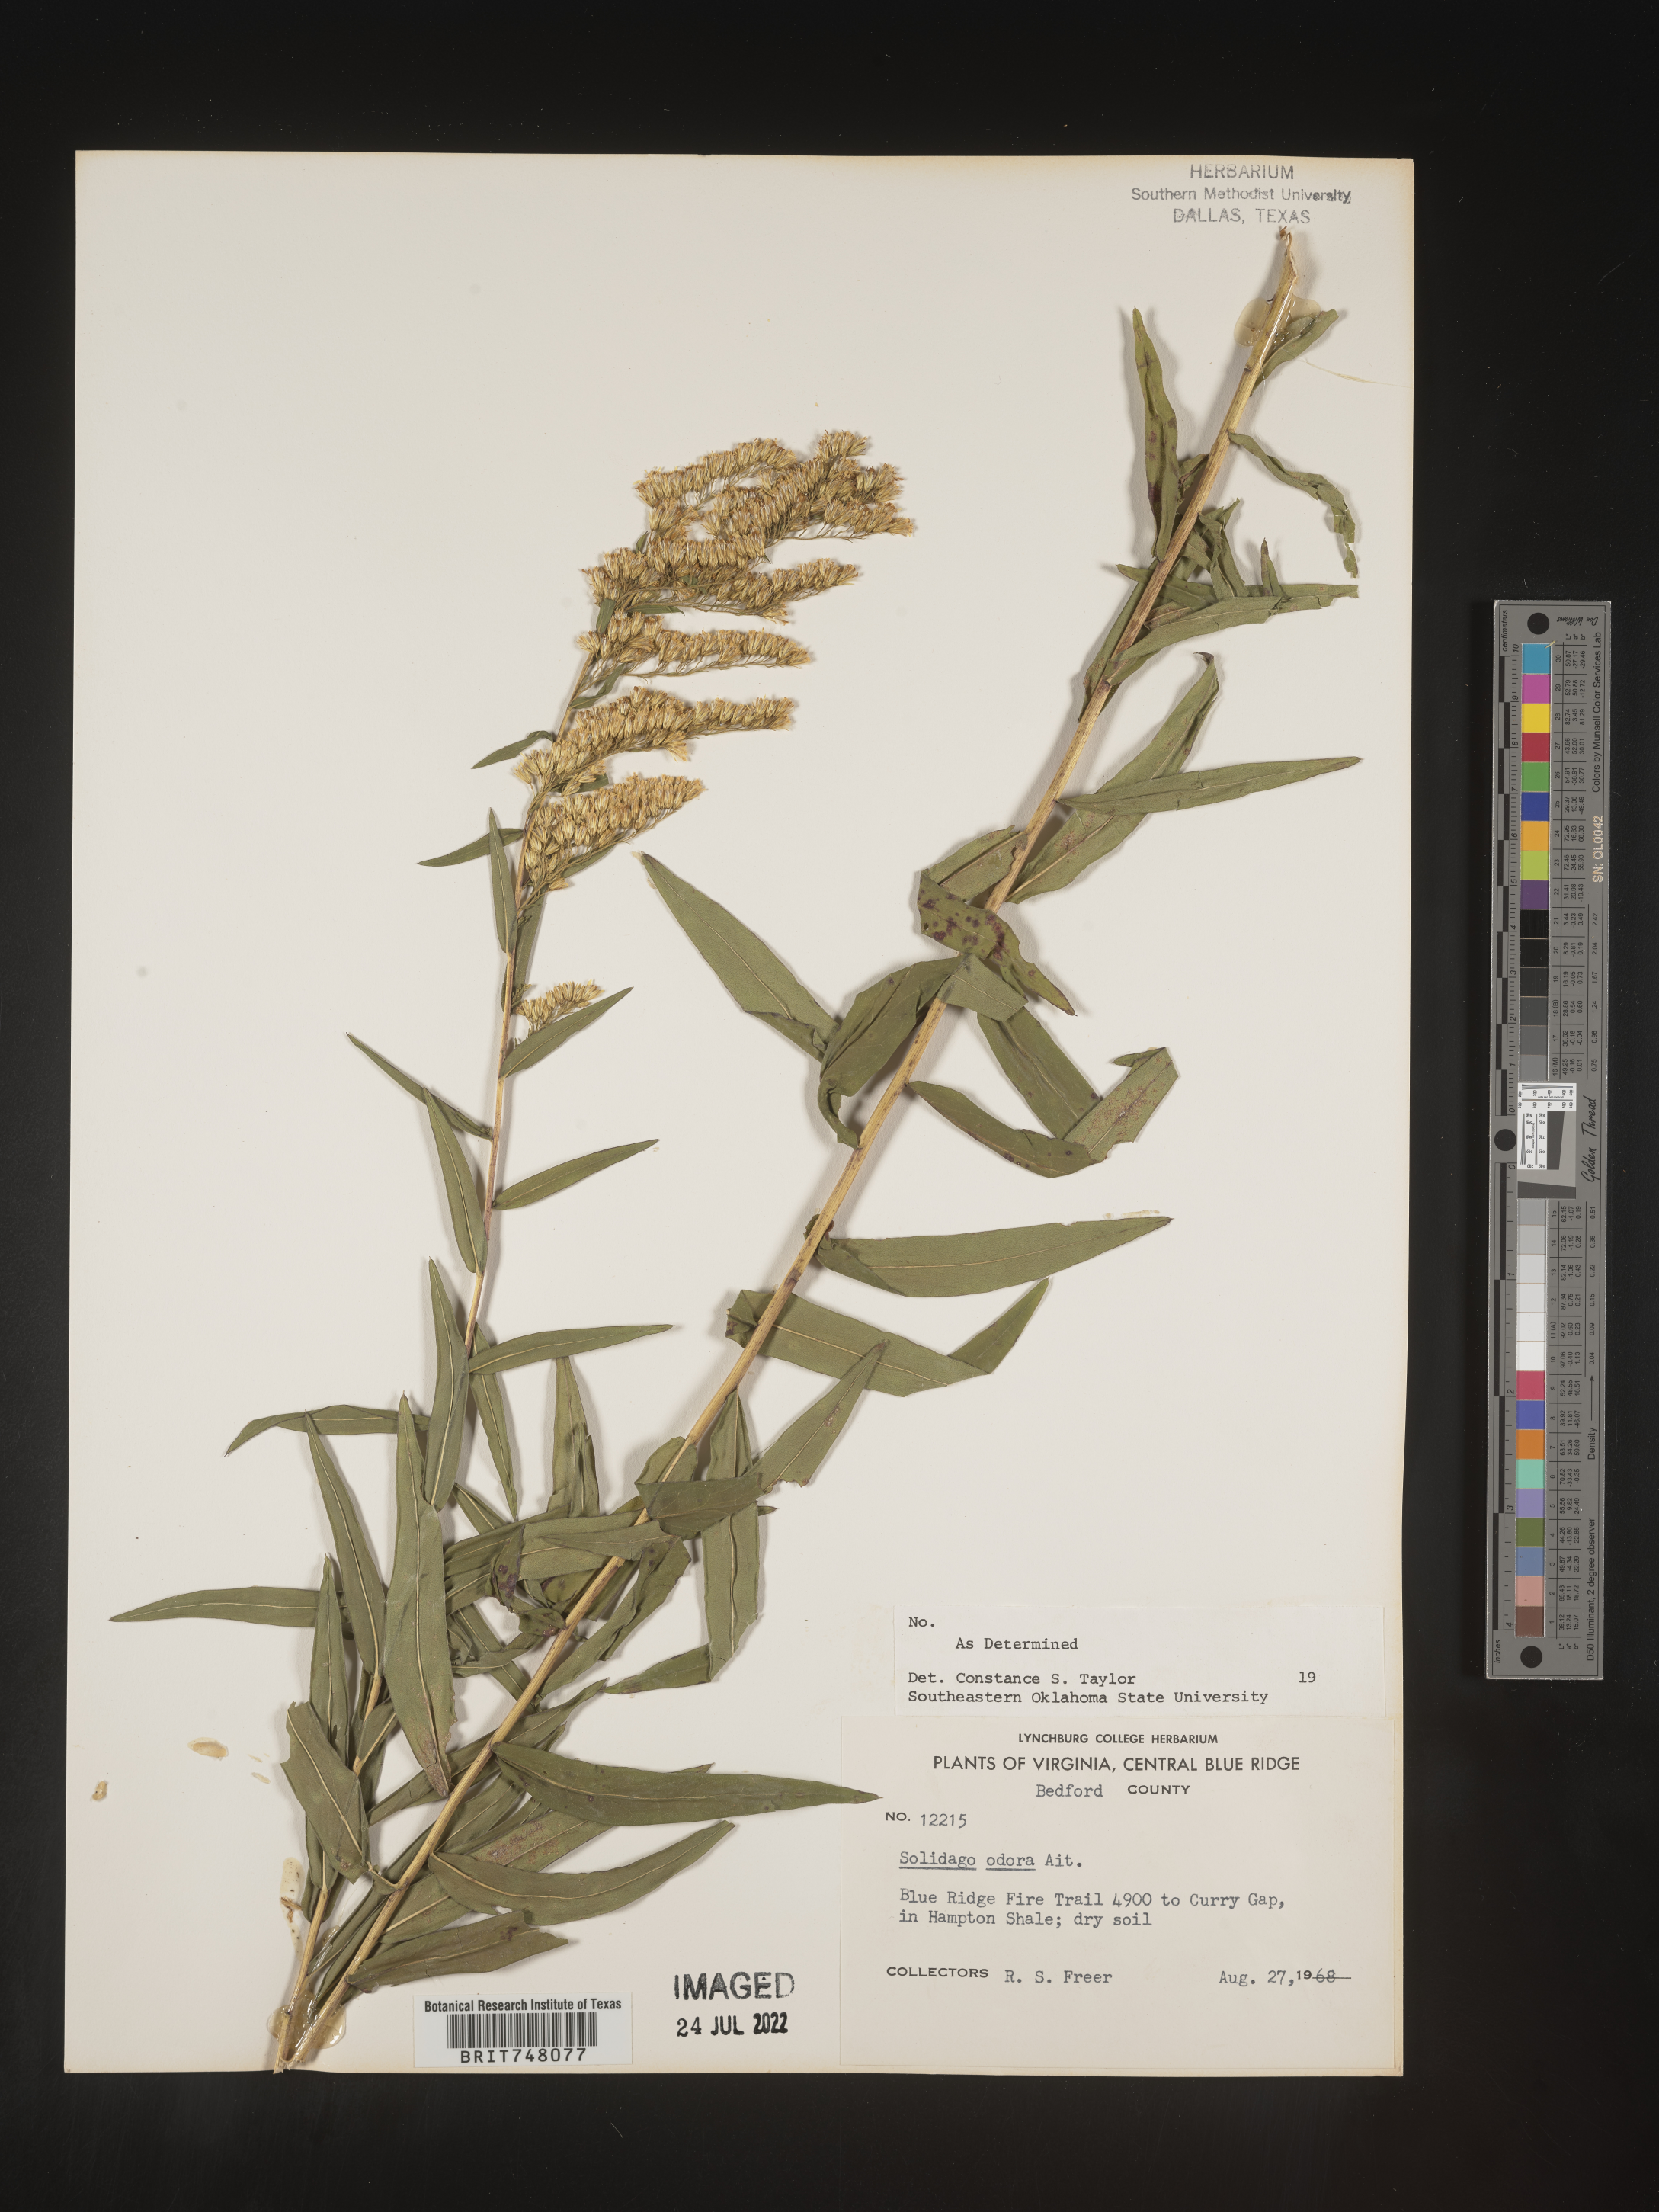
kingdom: Plantae
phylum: Tracheophyta
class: Magnoliopsida
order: Asterales
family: Asteraceae
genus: Solidago
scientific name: Solidago odora
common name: Anise-scented goldenrod
